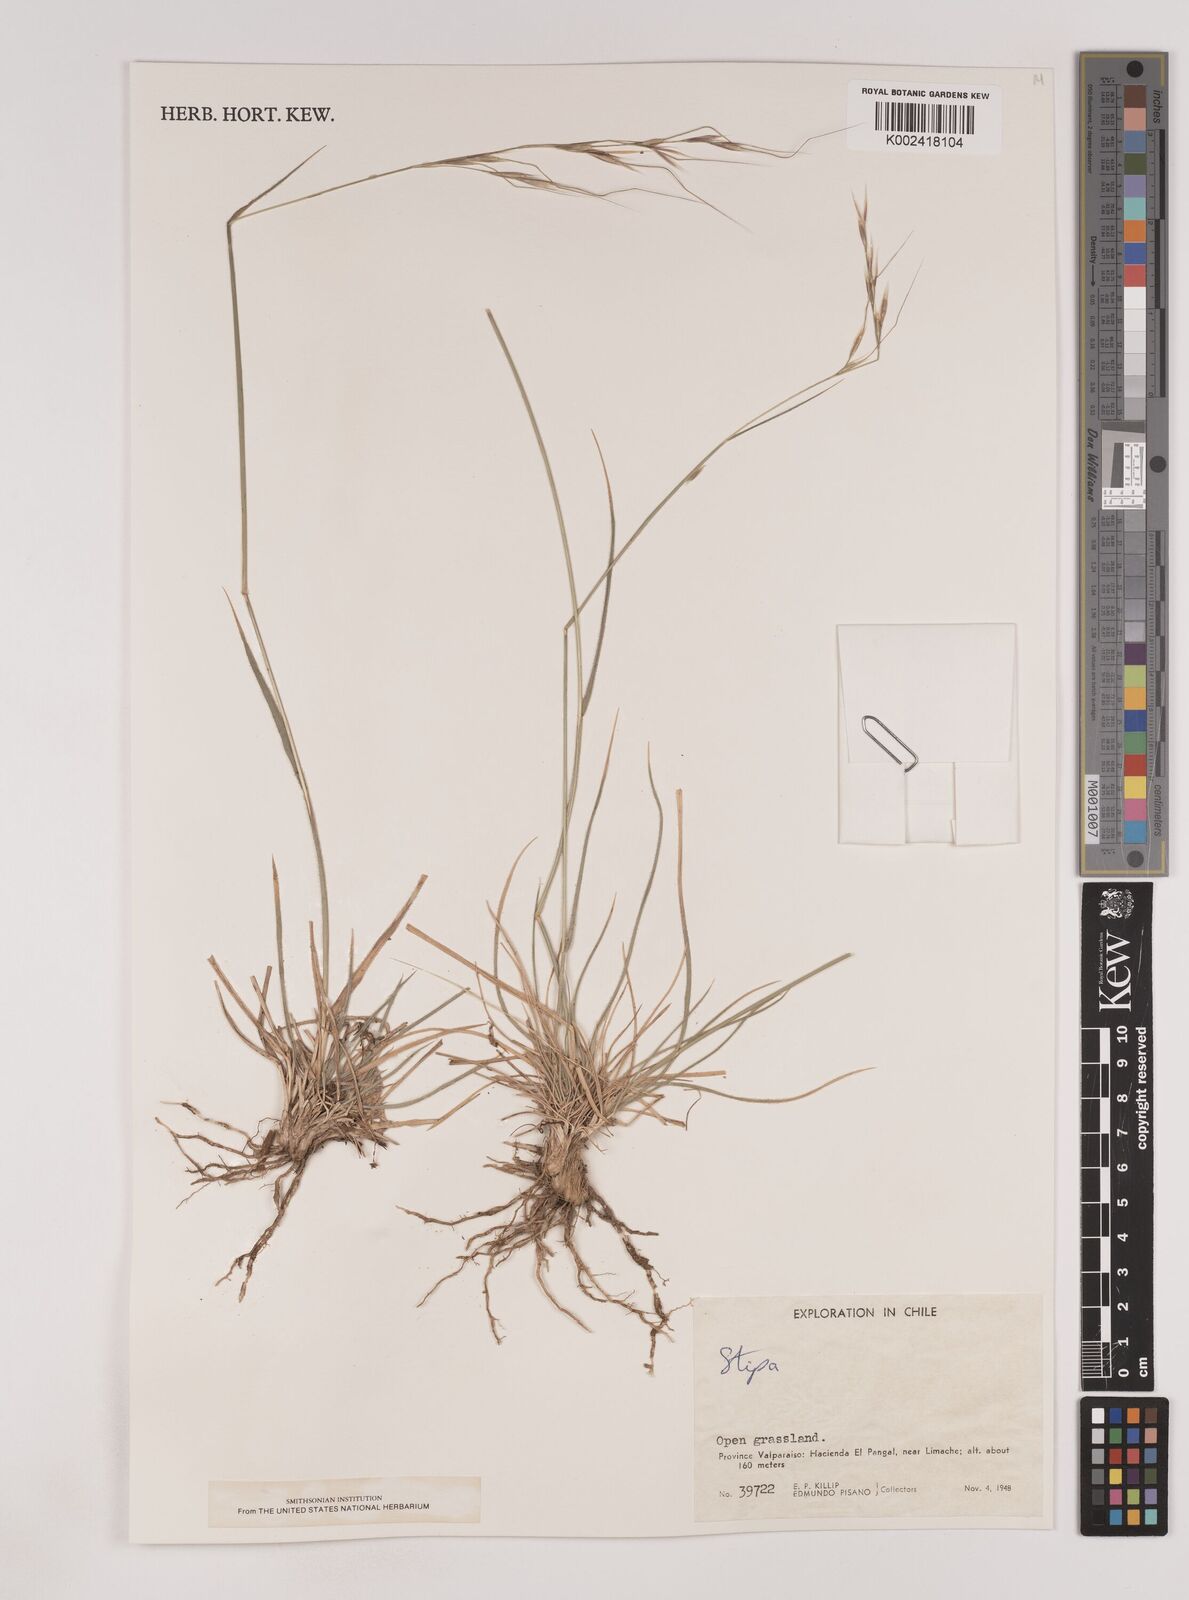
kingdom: Plantae
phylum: Tracheophyta
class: Liliopsida
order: Poales
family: Poaceae
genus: Nassella
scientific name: Nassella
